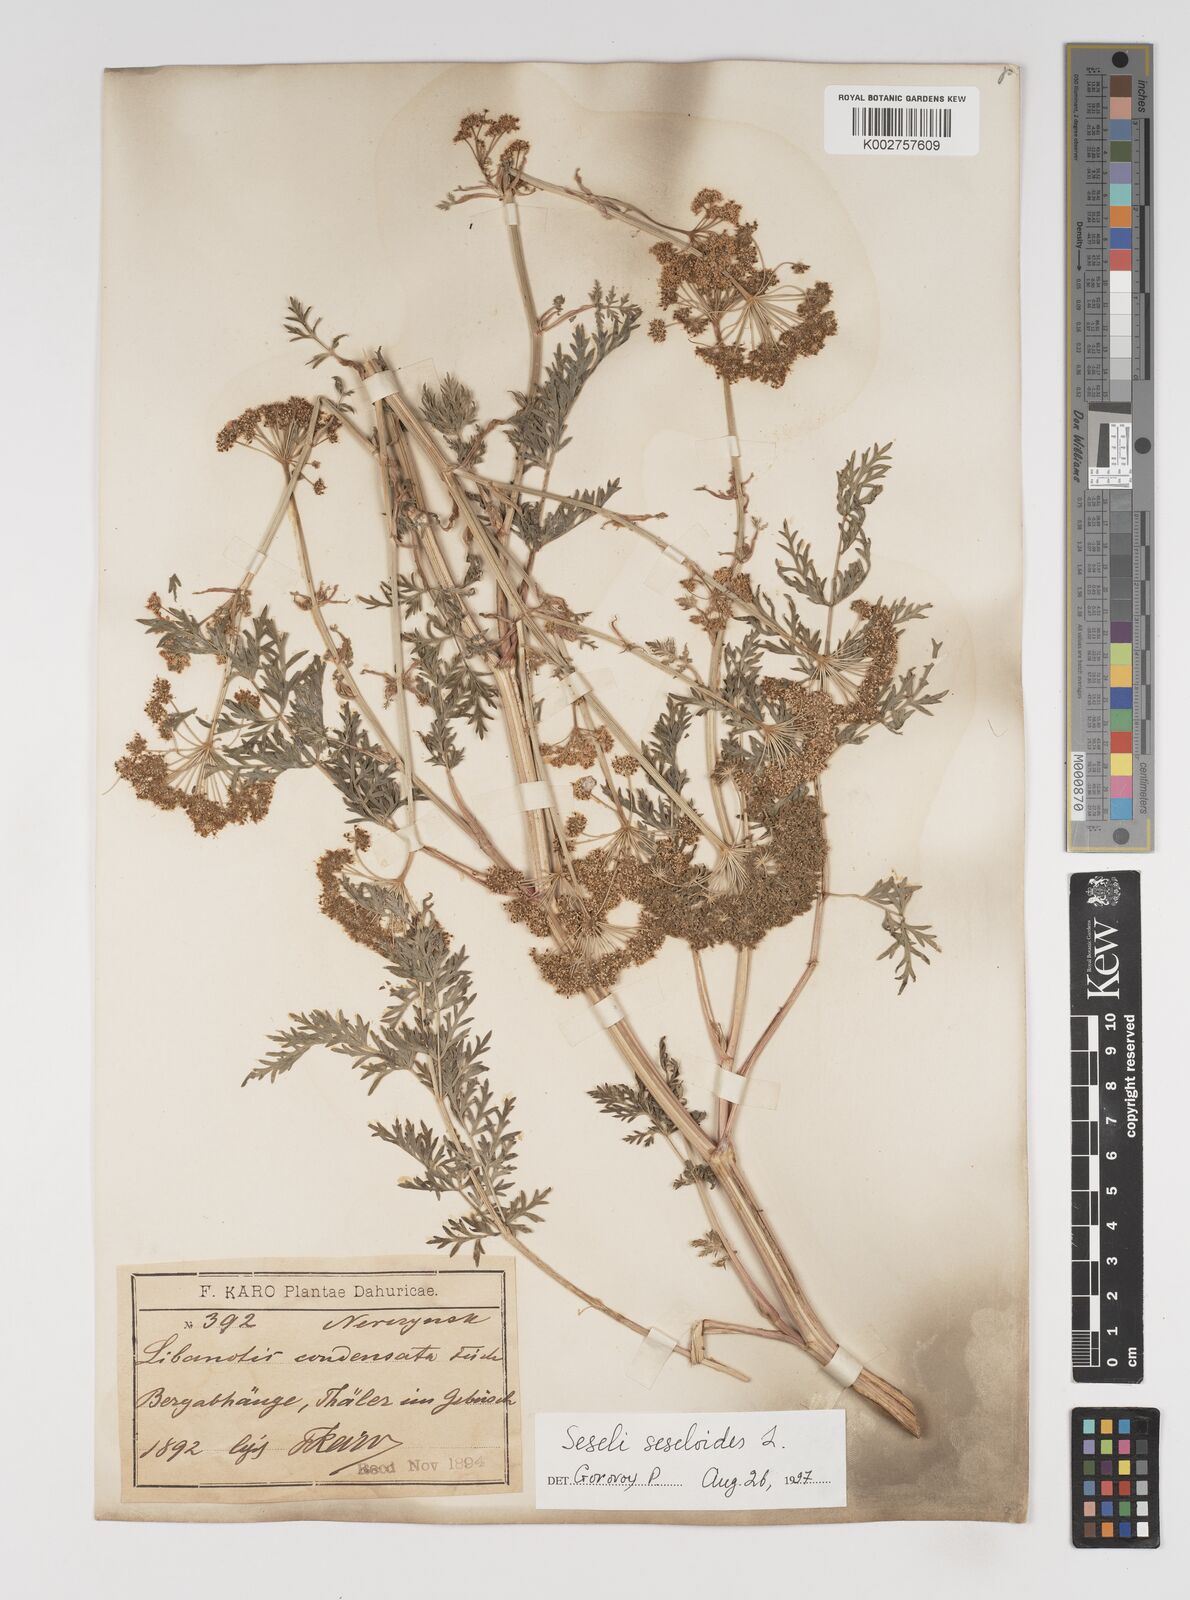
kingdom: Plantae
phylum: Tracheophyta
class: Magnoliopsida
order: Apiales
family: Apiaceae
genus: Seseli
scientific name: Seseli seseloides
